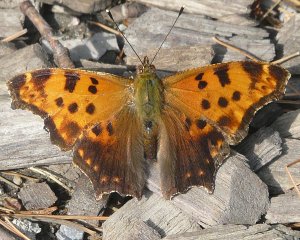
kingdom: Animalia
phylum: Arthropoda
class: Insecta
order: Lepidoptera
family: Nymphalidae
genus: Polygonia
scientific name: Polygonia comma
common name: Eastern Comma
